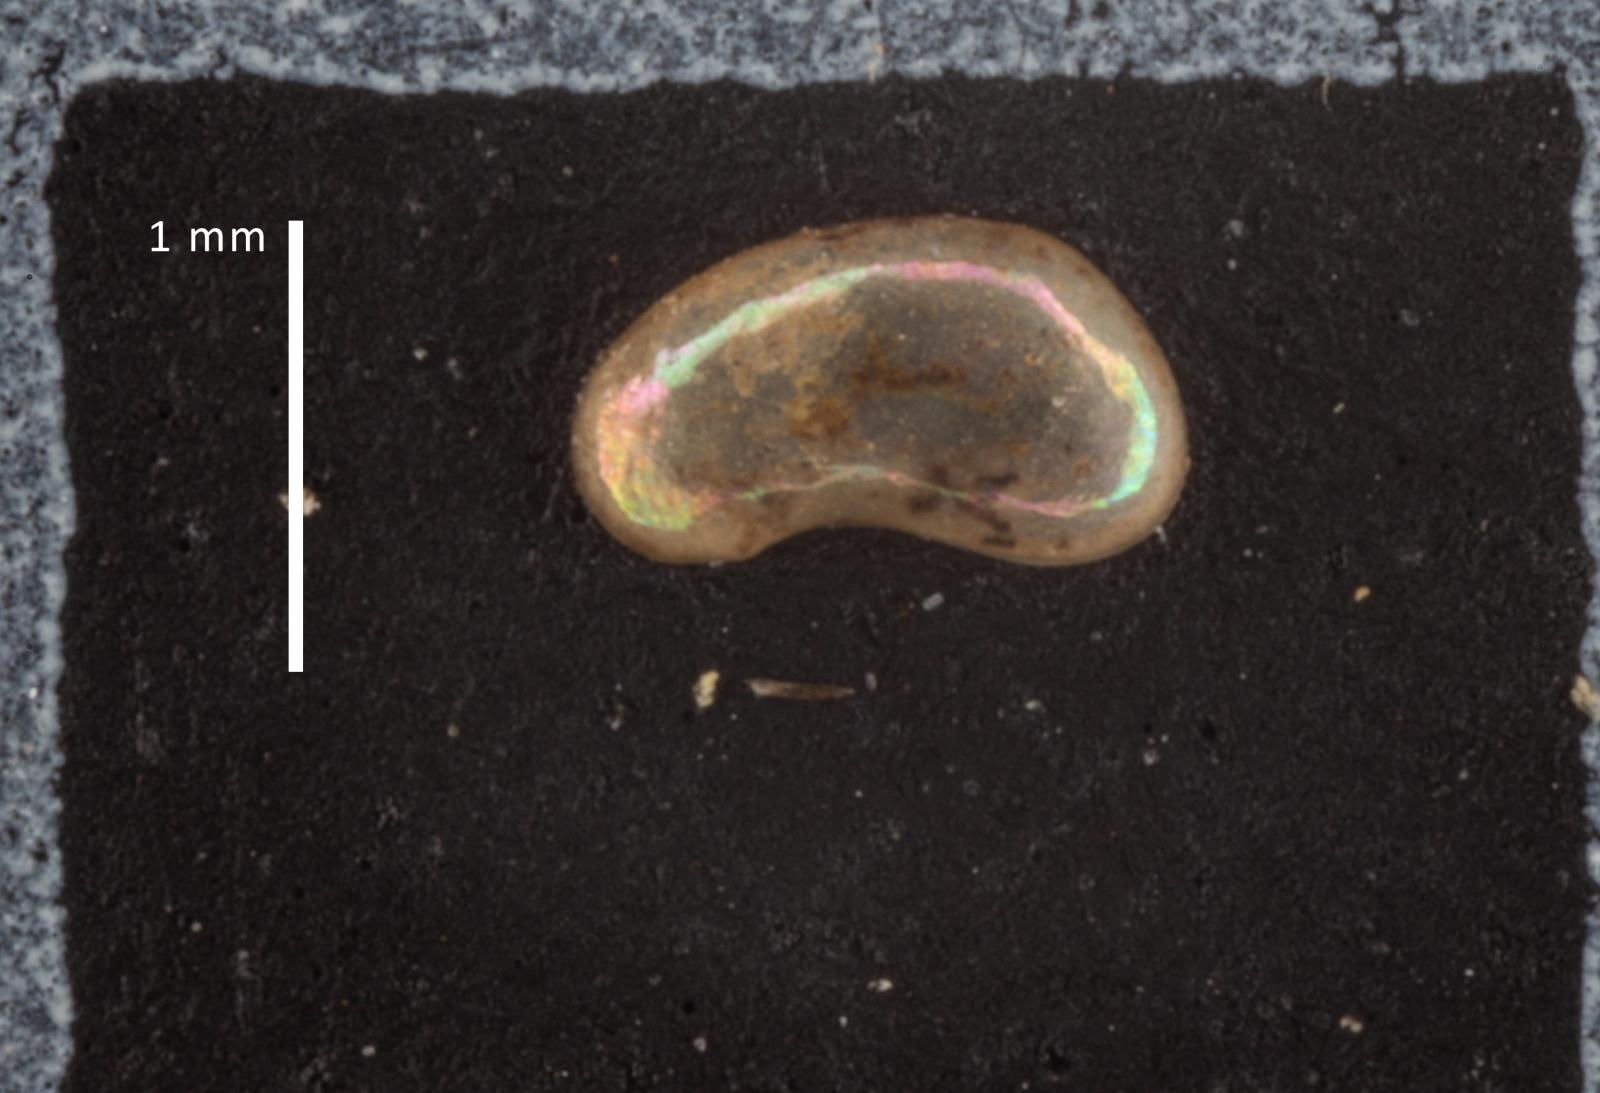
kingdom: Animalia
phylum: Arthropoda
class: Ostracoda
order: Podocopida
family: Candonidae
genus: Candona
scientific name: Candona candida
